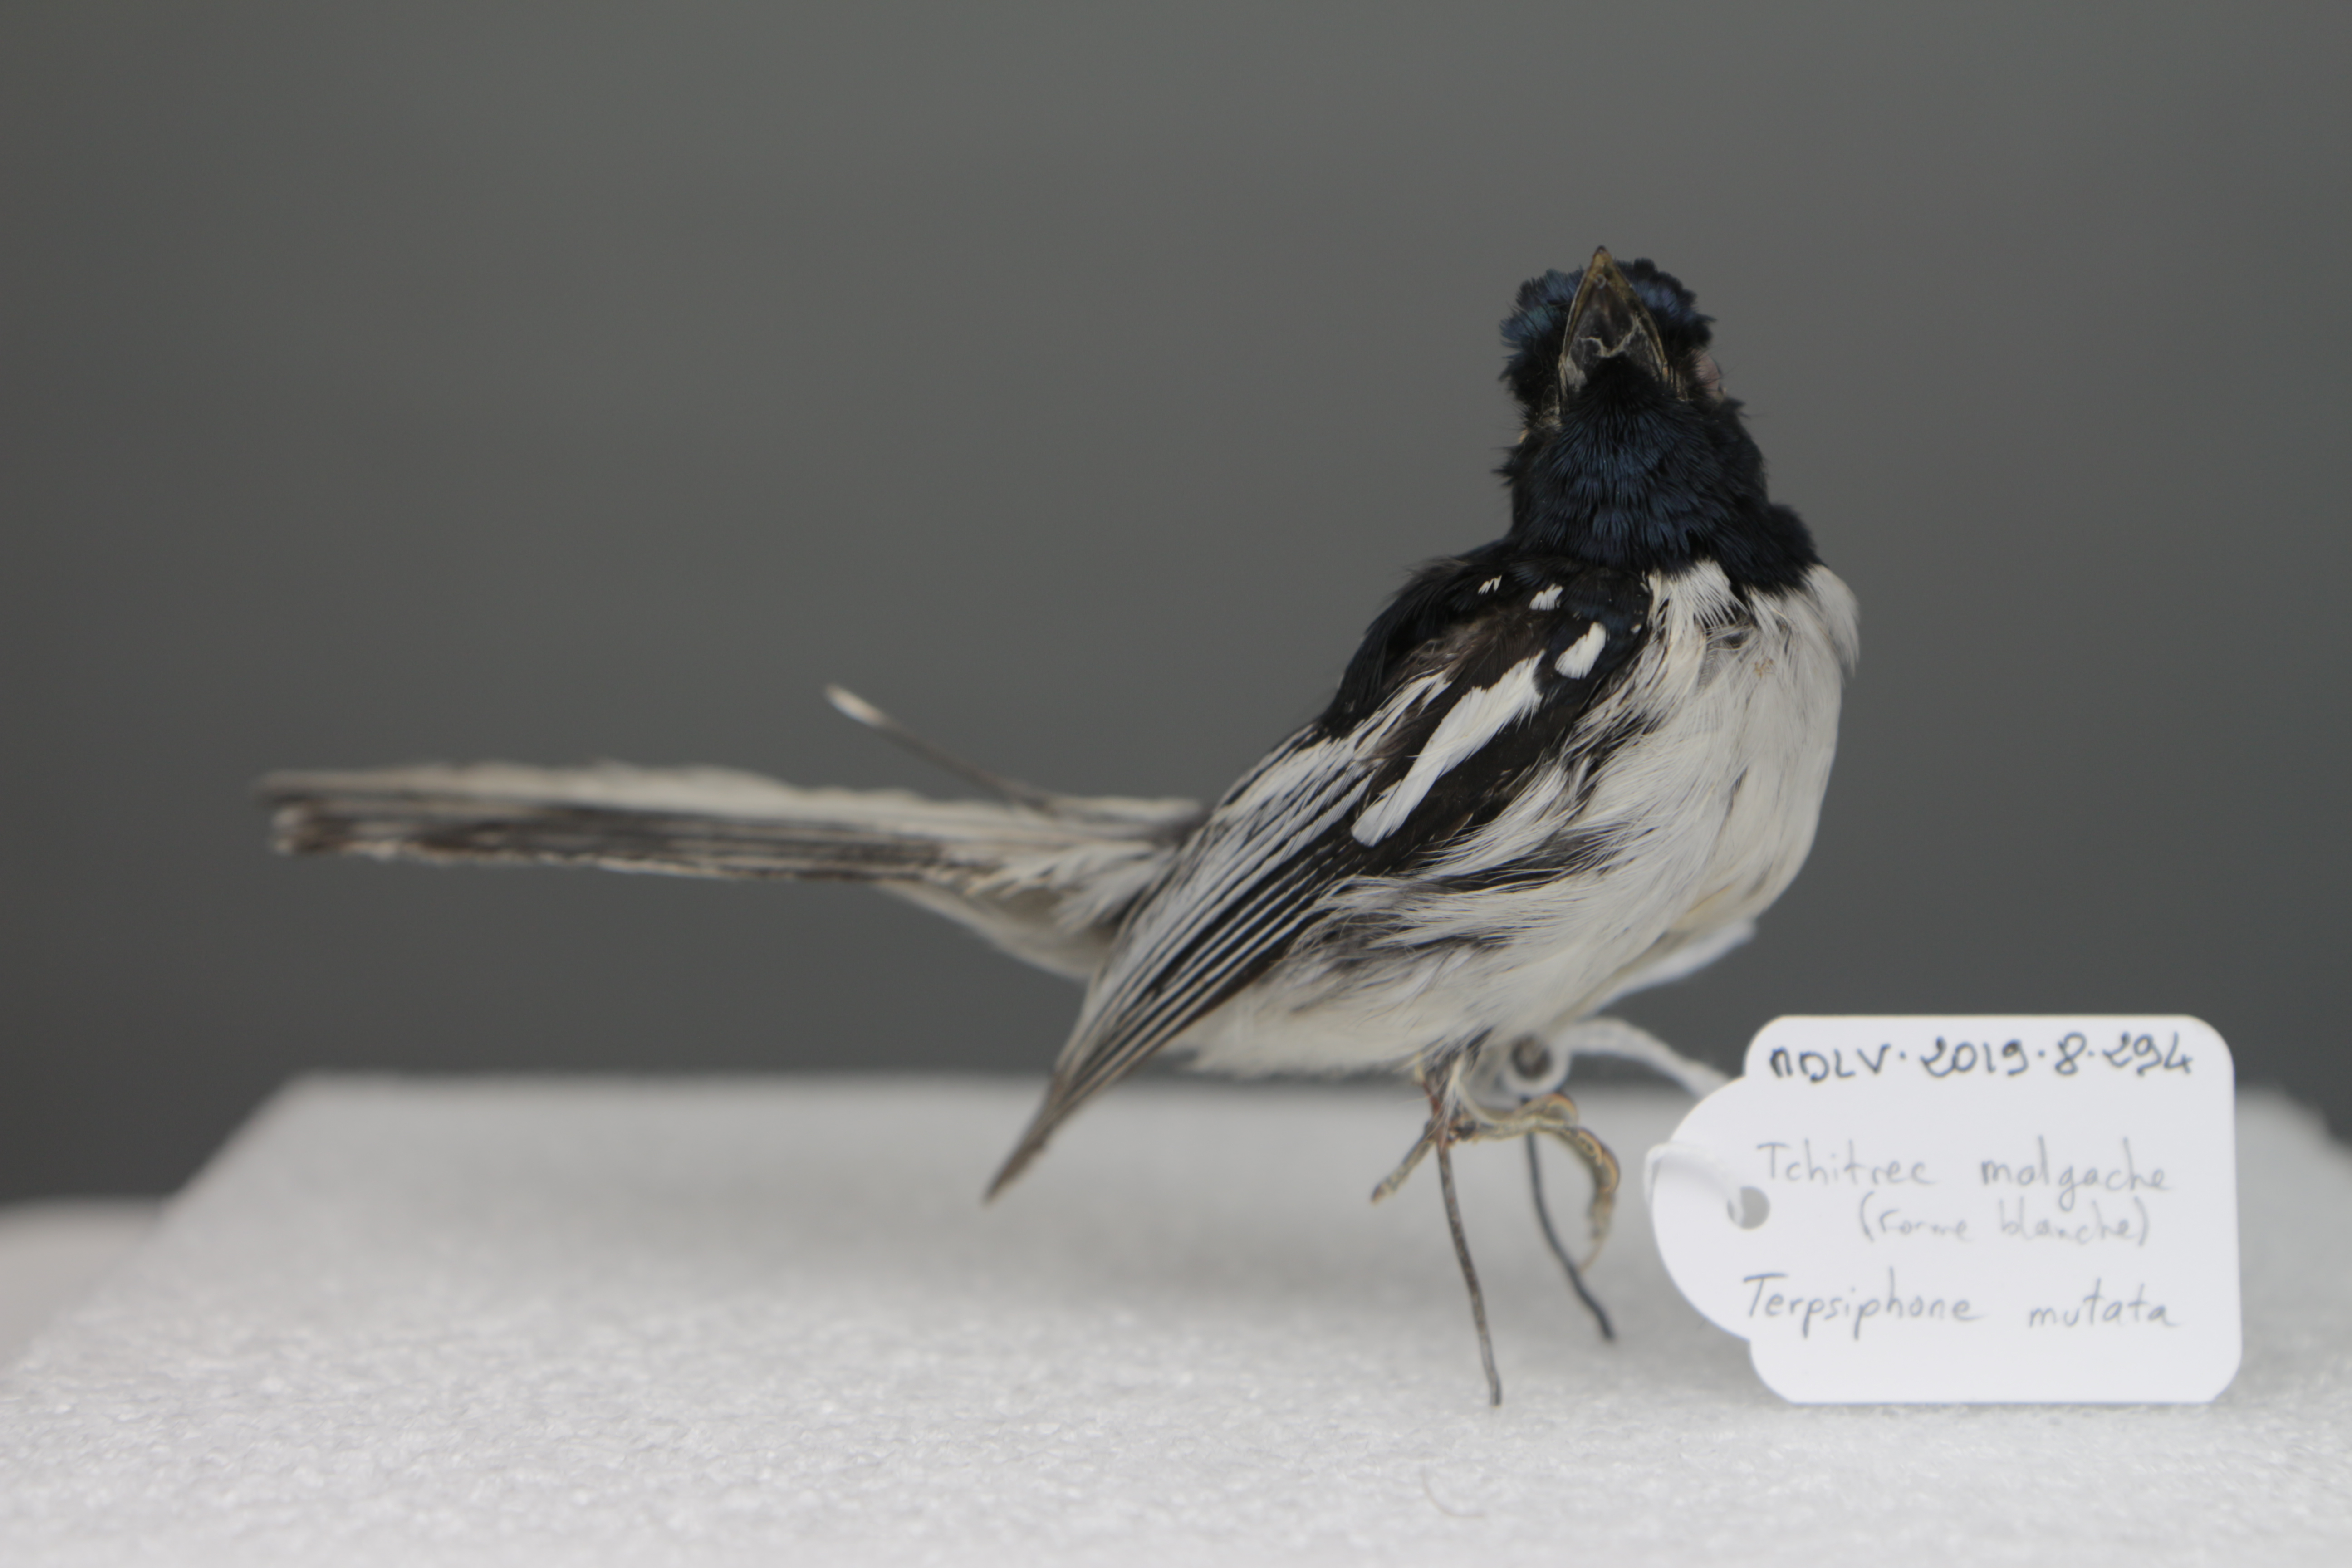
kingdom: Animalia
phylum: Chordata
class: Aves
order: Passeriformes
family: Monarchidae
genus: Terpsiphone
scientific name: Terpsiphone mutata
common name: Malagasy paradise flycatcher
